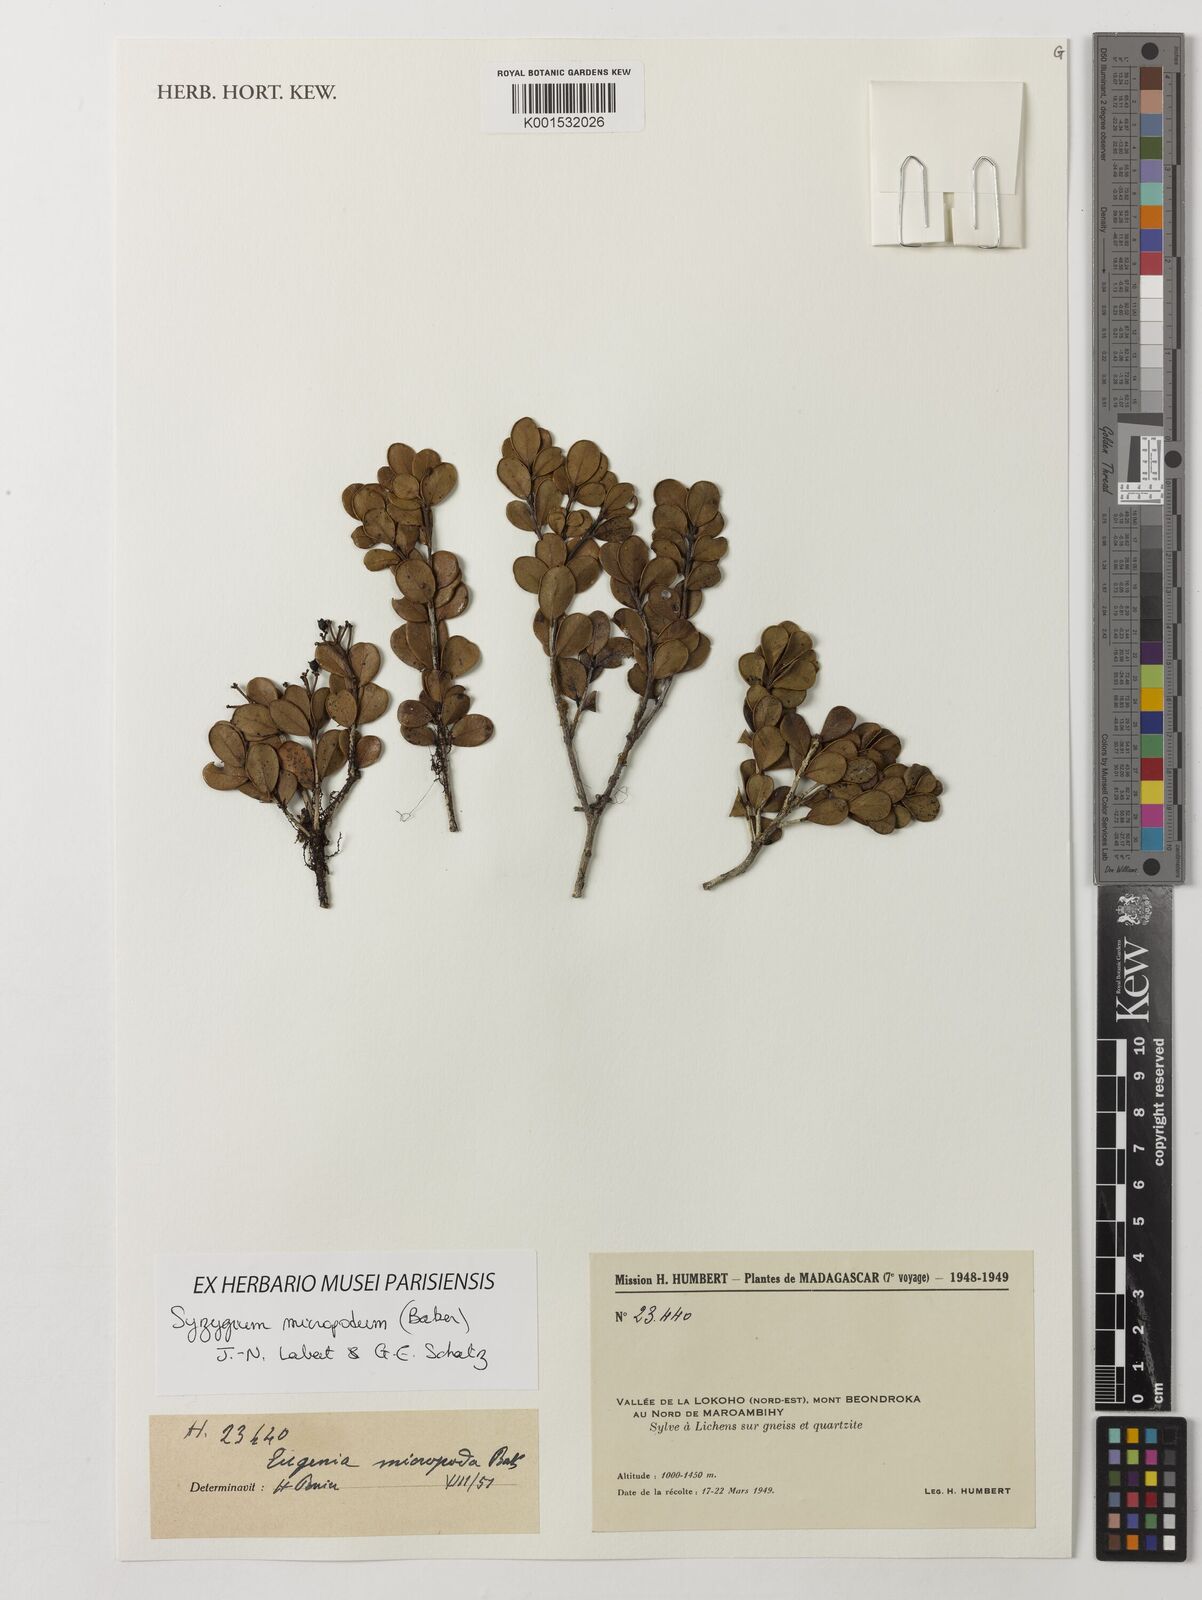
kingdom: Plantae
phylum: Tracheophyta
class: Magnoliopsida
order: Myrtales
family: Myrtaceae
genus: Syzygium
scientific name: Syzygium micropodum
